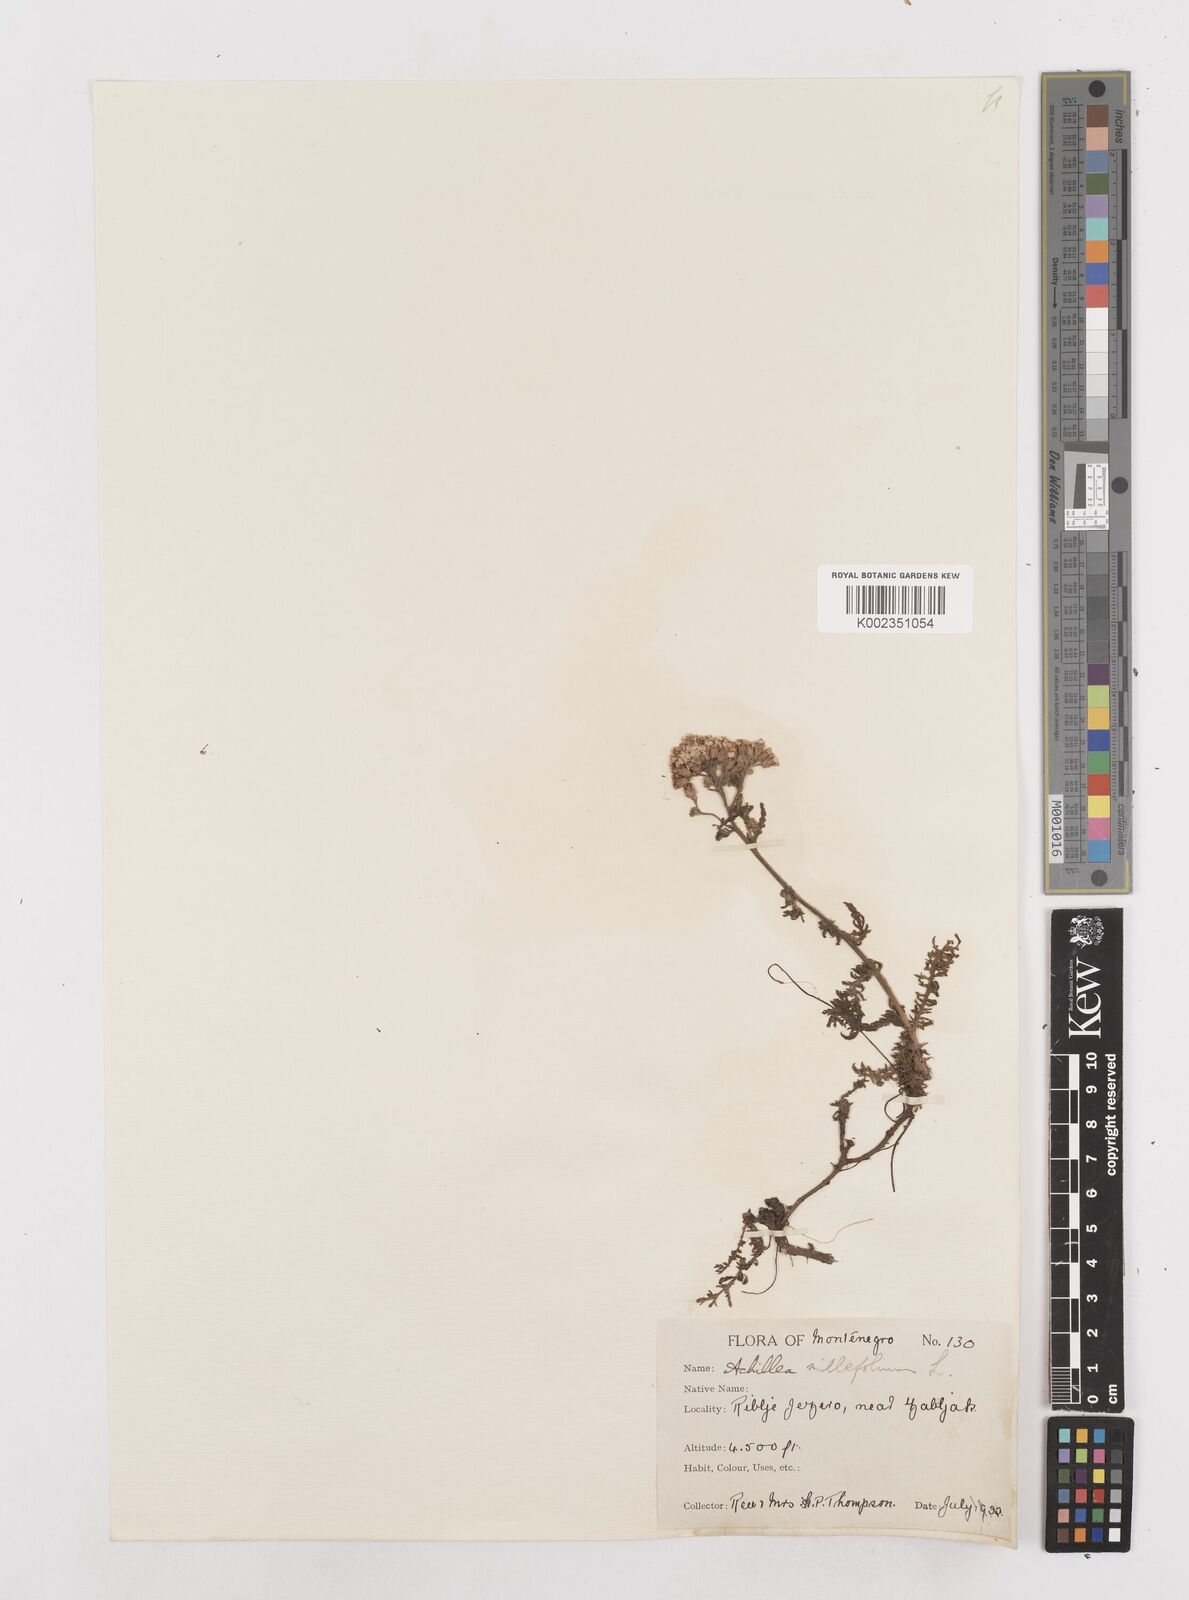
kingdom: Plantae
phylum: Tracheophyta
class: Magnoliopsida
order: Asterales
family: Asteraceae
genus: Achillea
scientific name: Achillea millefolium
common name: Yarrow
